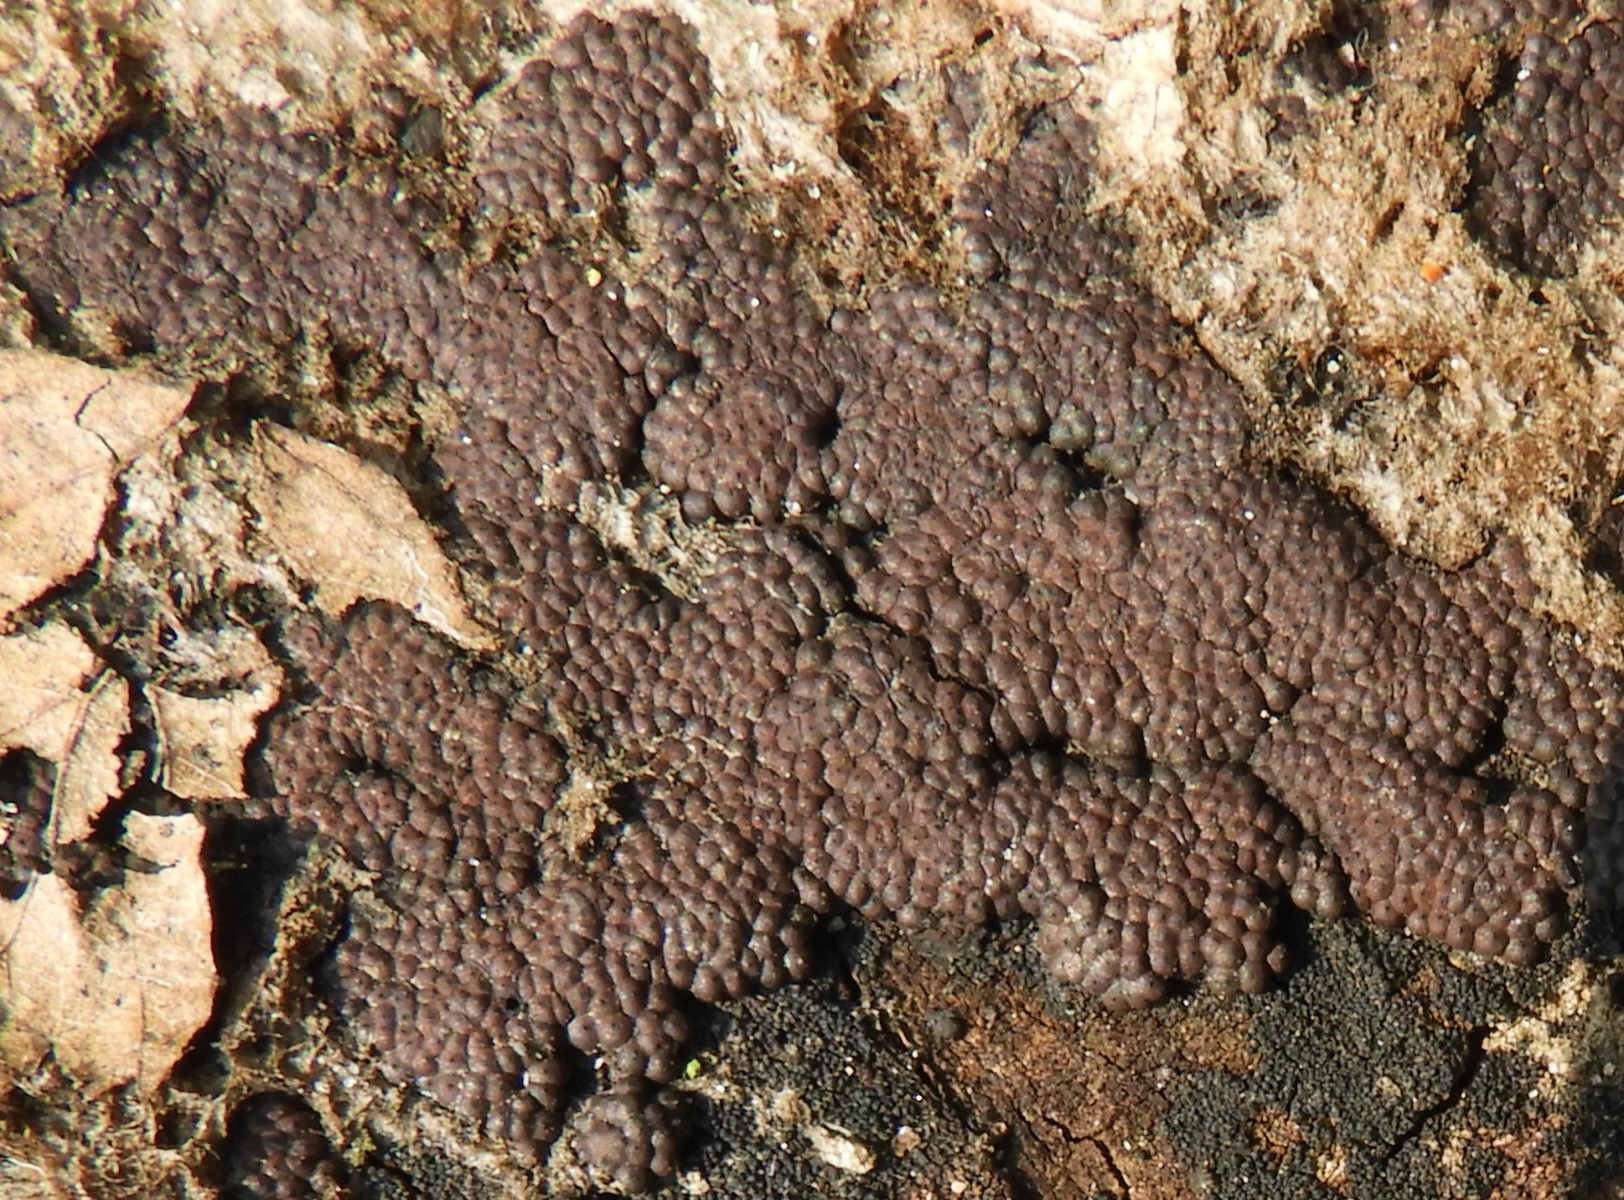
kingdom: Fungi
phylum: Ascomycota
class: Sordariomycetes
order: Xylariales
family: Hypoxylaceae
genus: Hypoxylon
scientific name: Hypoxylon fragiforme
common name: kuljordbær
